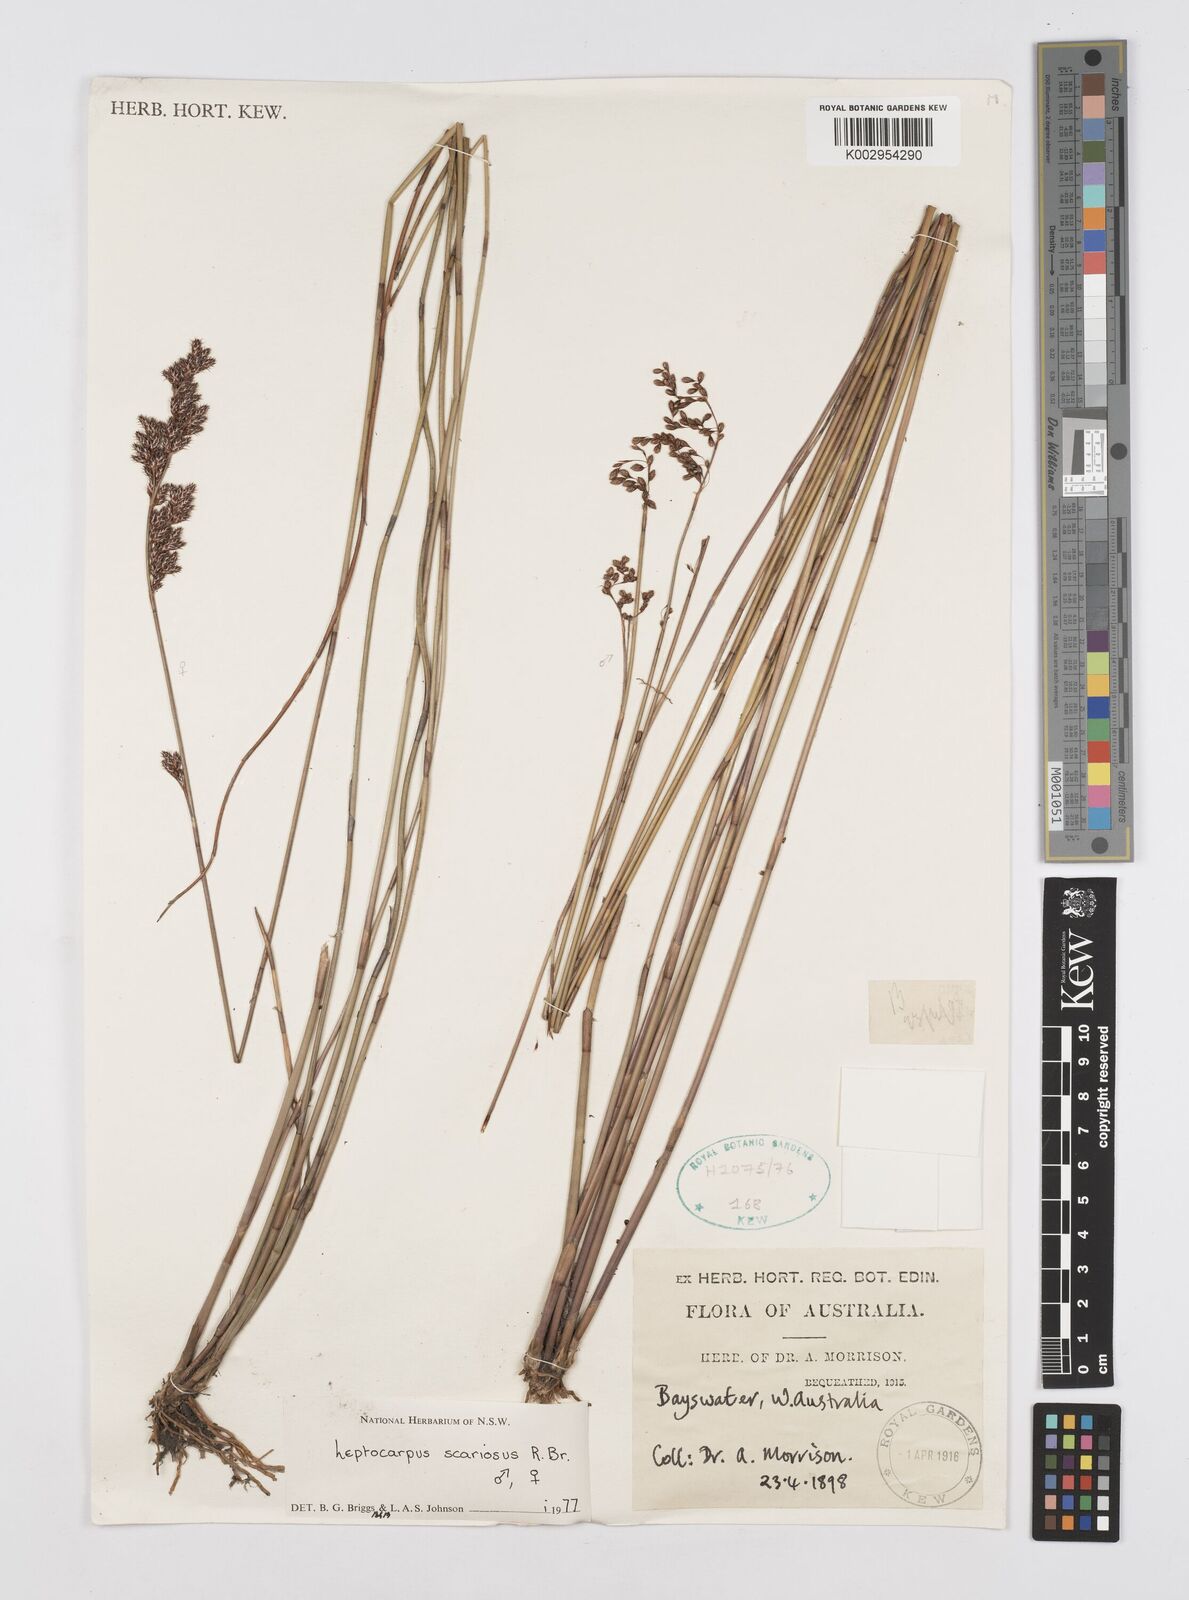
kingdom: Plantae
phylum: Tracheophyta
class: Liliopsida
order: Poales
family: Restionaceae
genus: Leptocarpus
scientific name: Leptocarpus scariosus
